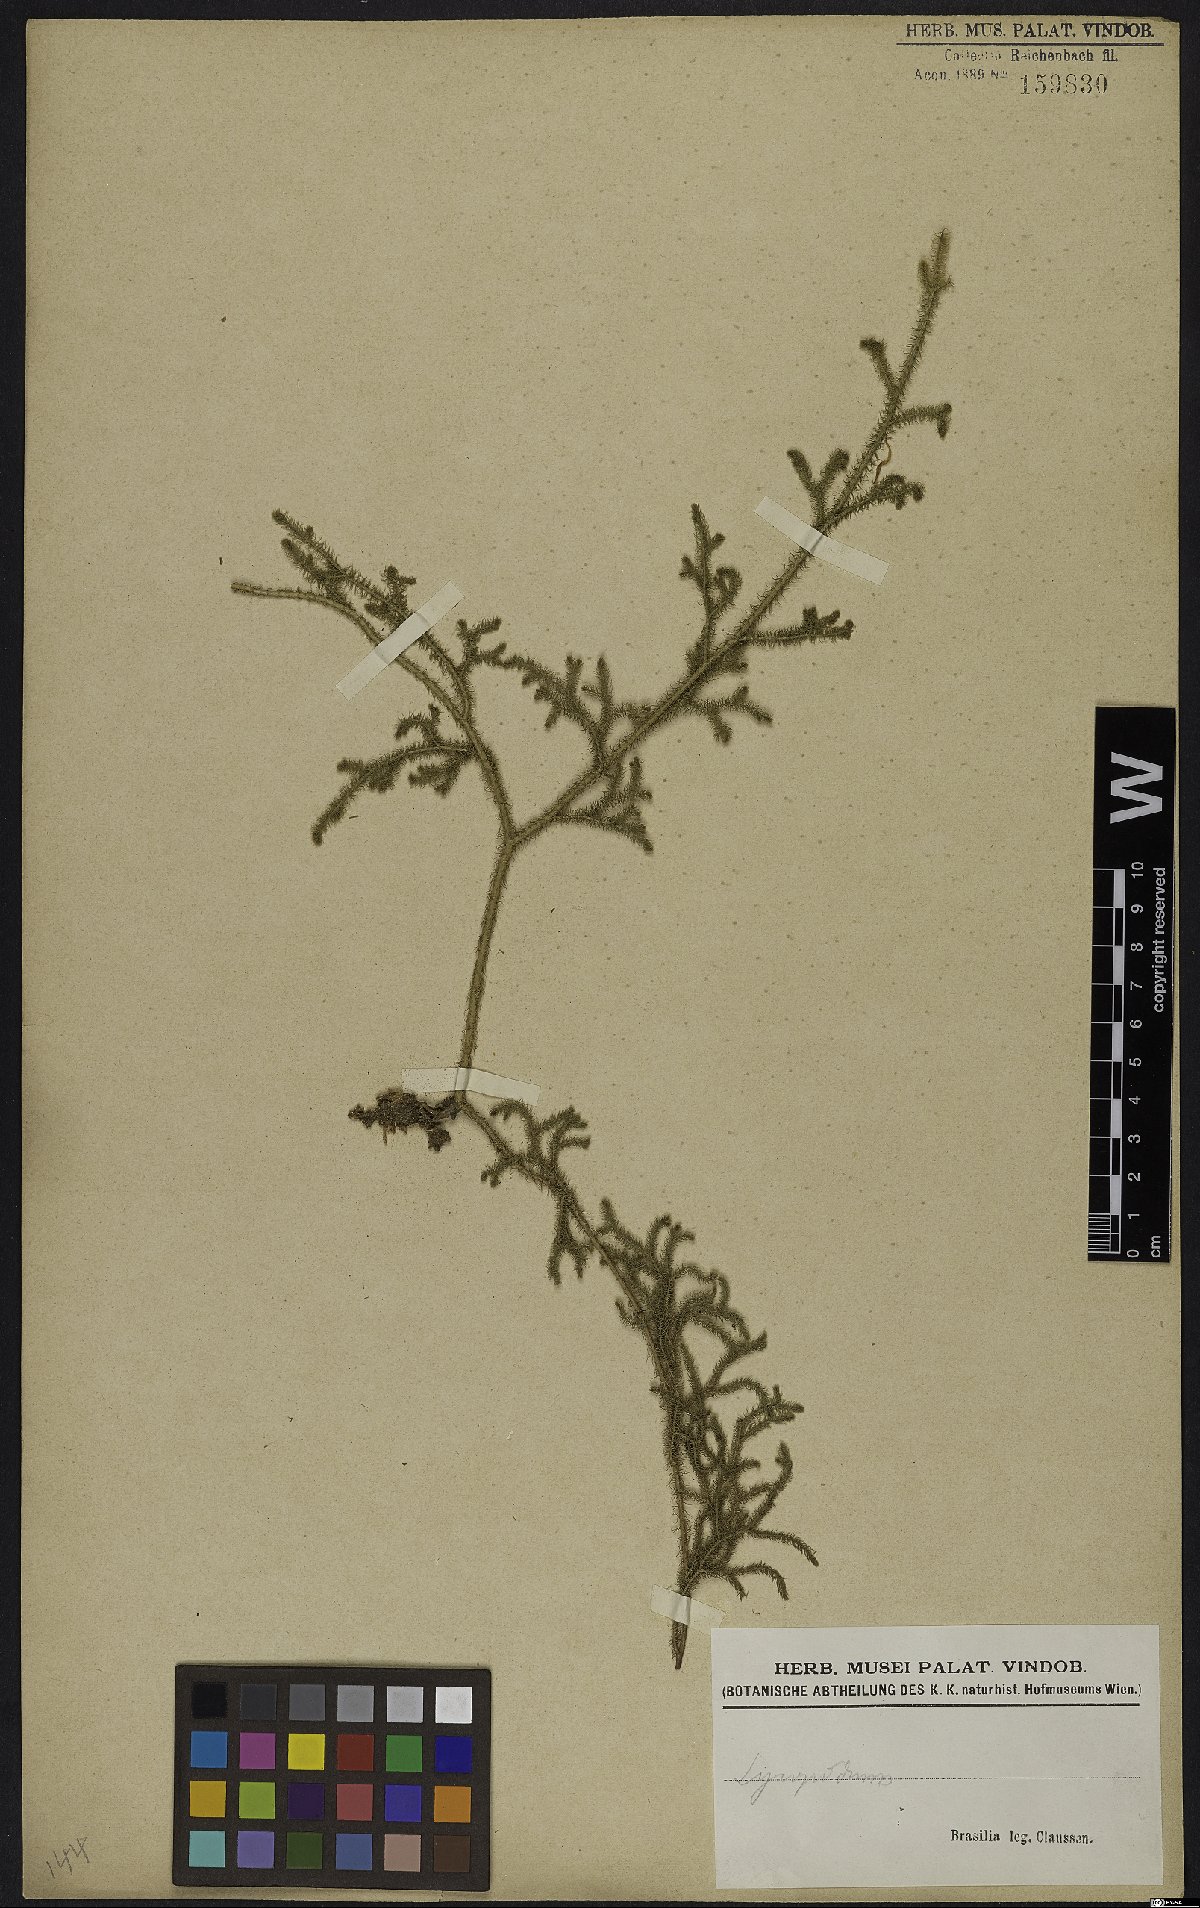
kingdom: Plantae
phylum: Tracheophyta
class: Lycopodiopsida
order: Lycopodiales
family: Lycopodiaceae
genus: Lycopodium
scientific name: Lycopodium
